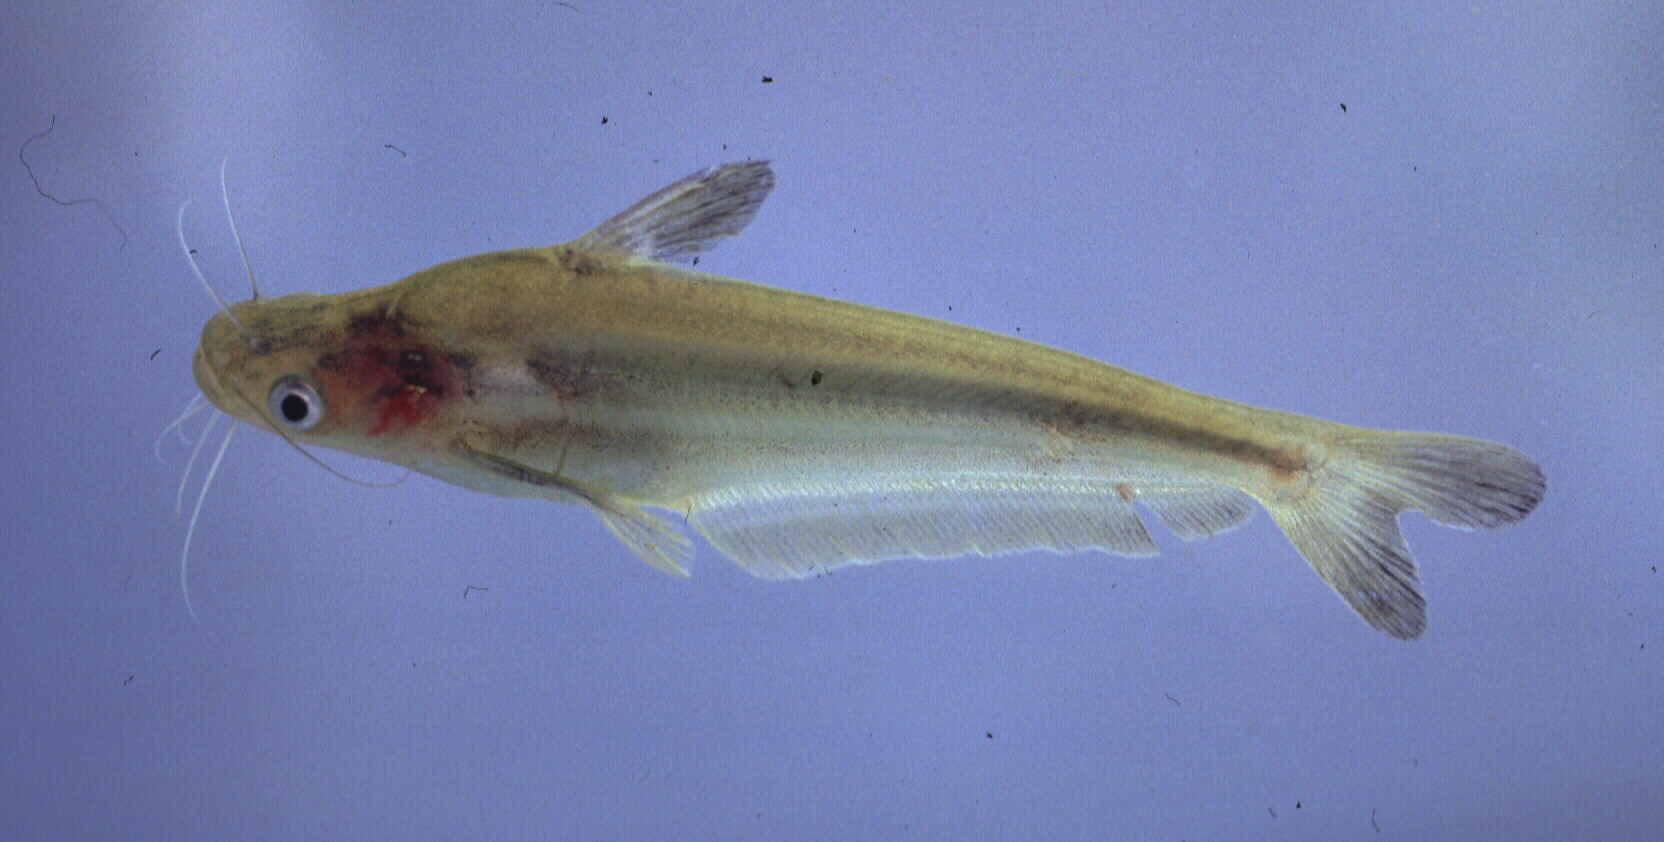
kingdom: Animalia
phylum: Chordata
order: Siluriformes
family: Schilbeidae
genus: Schilbe
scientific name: Schilbe intermedius
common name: Silver catfish
